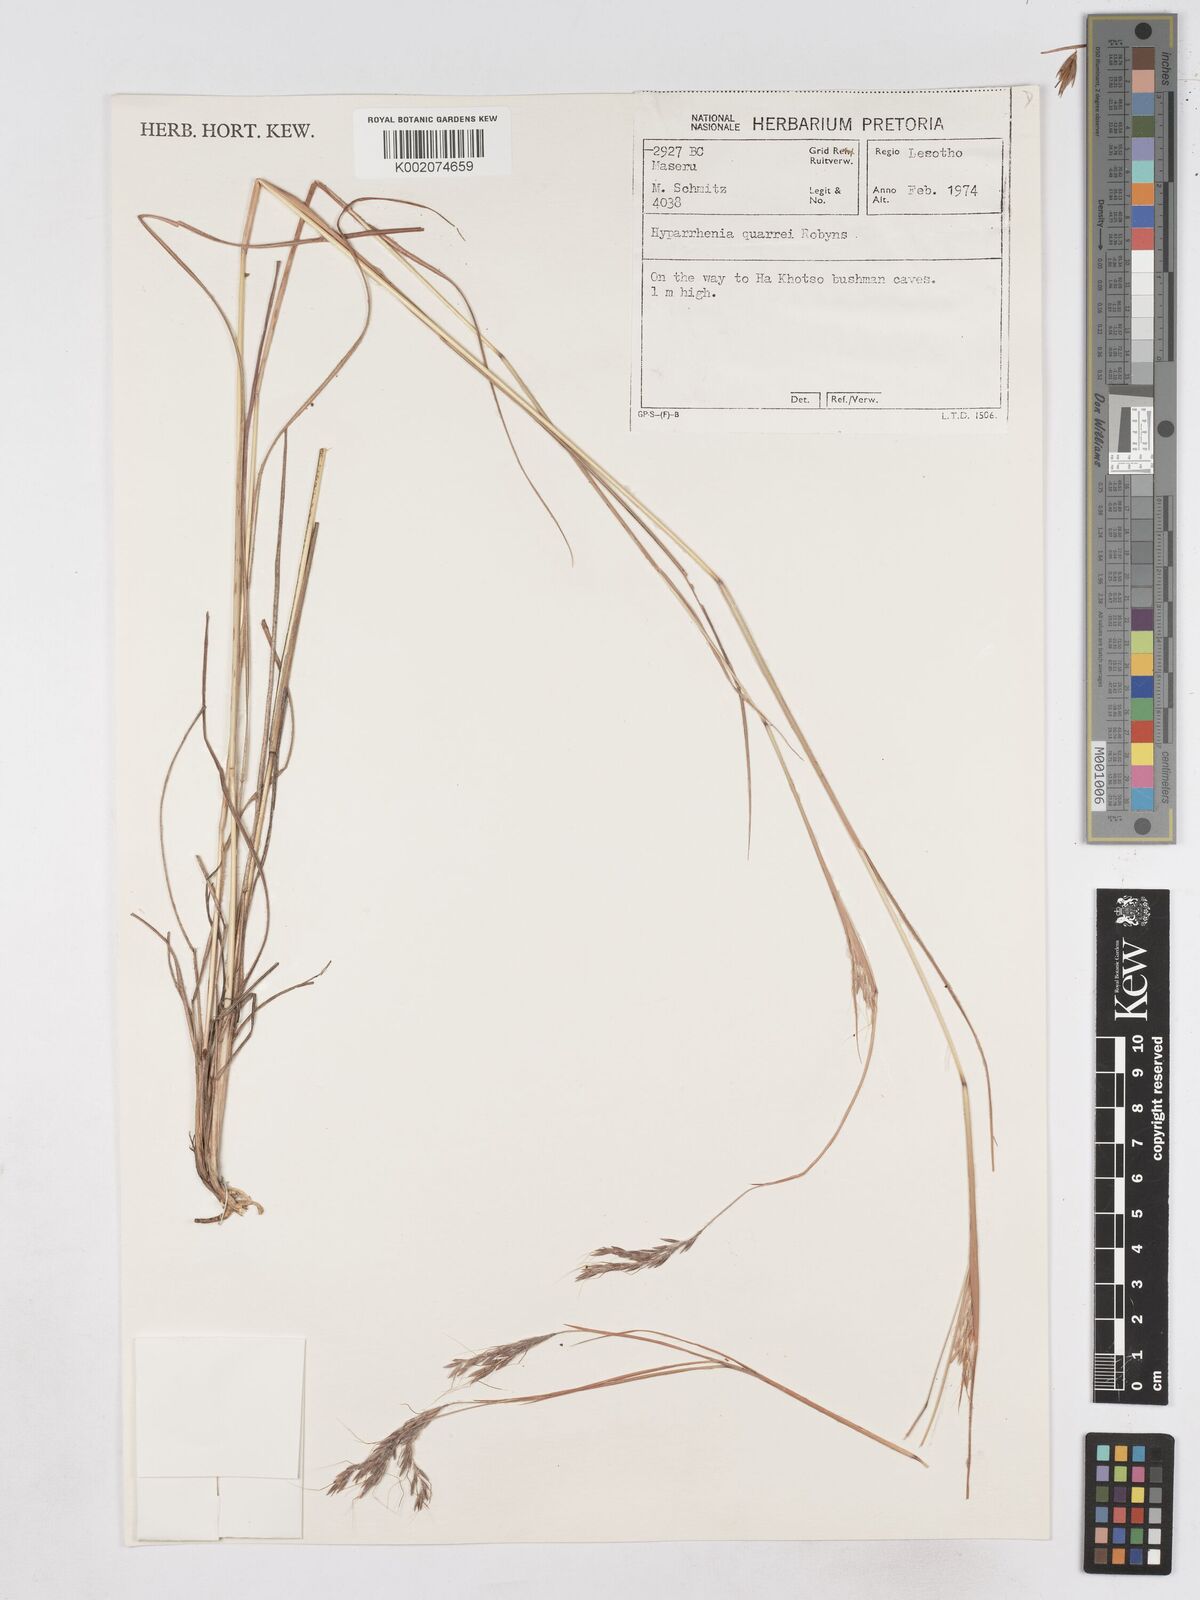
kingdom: Plantae
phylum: Tracheophyta
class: Liliopsida
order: Poales
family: Poaceae
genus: Hyparrhenia
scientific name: Hyparrhenia quarrei
